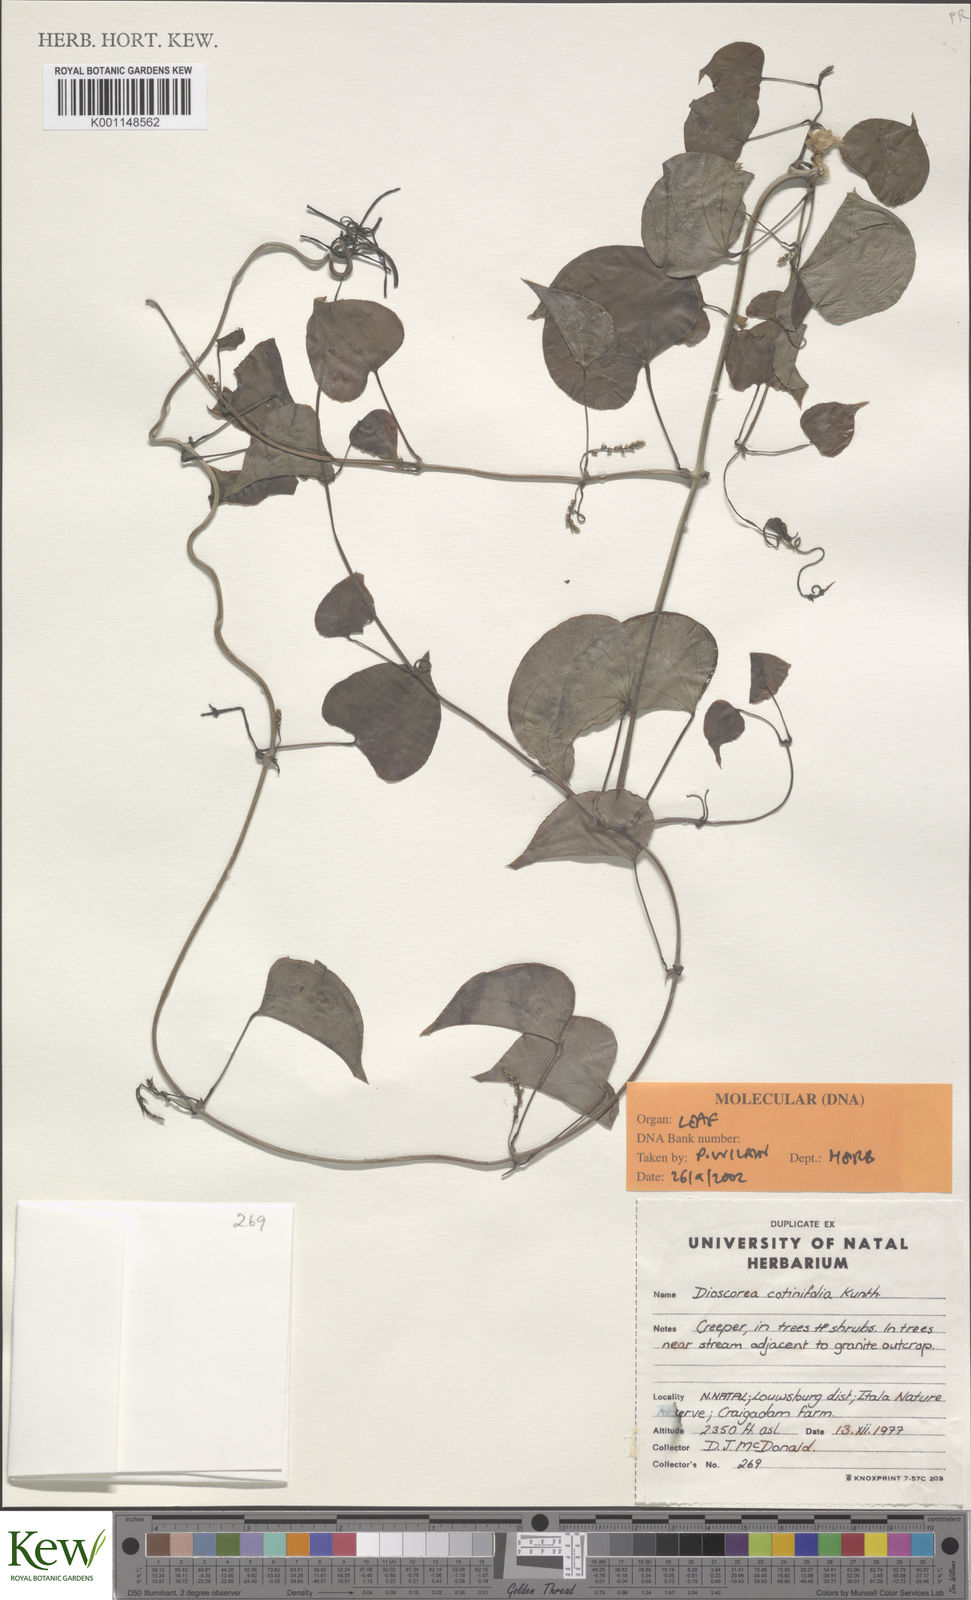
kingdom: Plantae
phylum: Tracheophyta
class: Liliopsida
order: Dioscoreales
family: Dioscoreaceae
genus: Dioscorea
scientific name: Dioscorea cotinifolia
